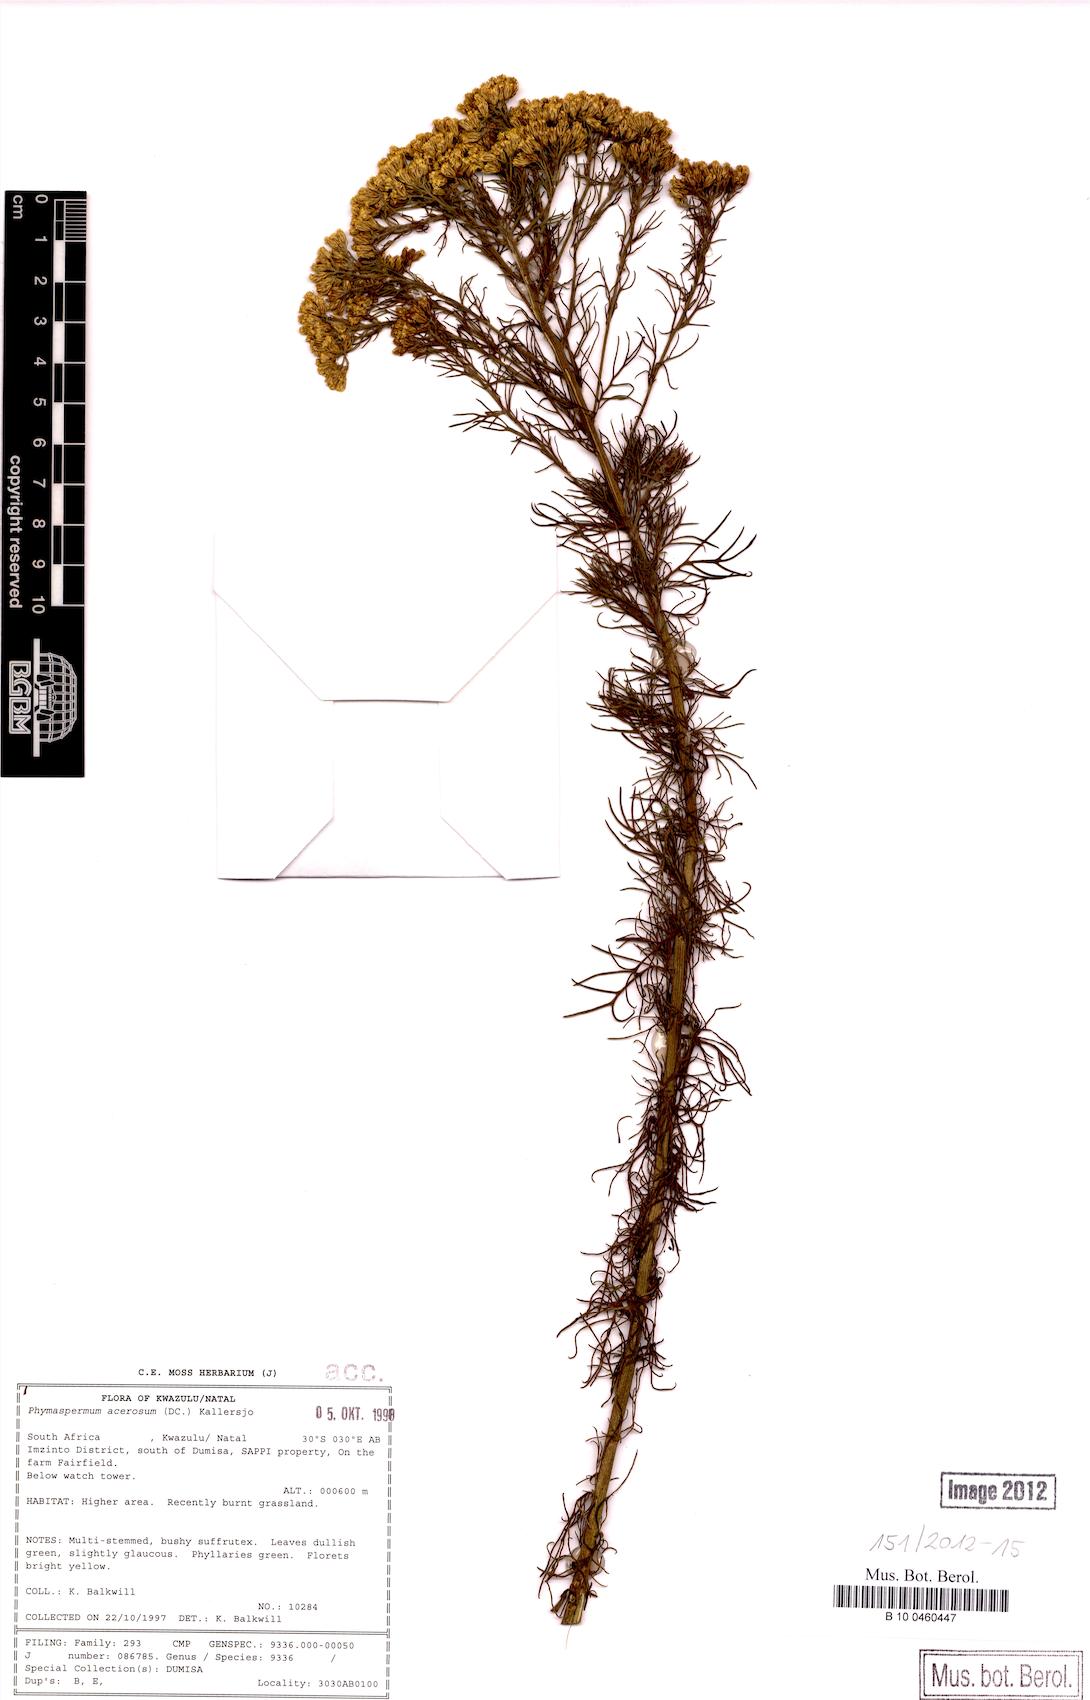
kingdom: Plantae
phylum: Tracheophyta
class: Magnoliopsida
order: Asterales
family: Asteraceae
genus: Phymaspermum
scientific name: Phymaspermum acerosum
